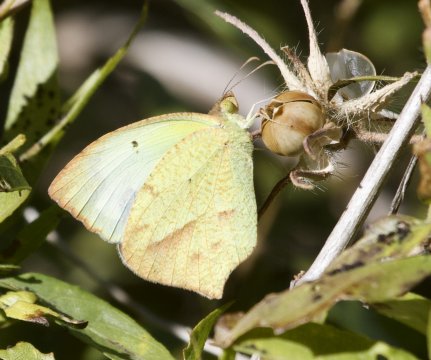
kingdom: Animalia
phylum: Arthropoda
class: Insecta
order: Lepidoptera
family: Pieridae
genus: Eurema
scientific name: Eurema mexicana
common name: Mexican Yellow
